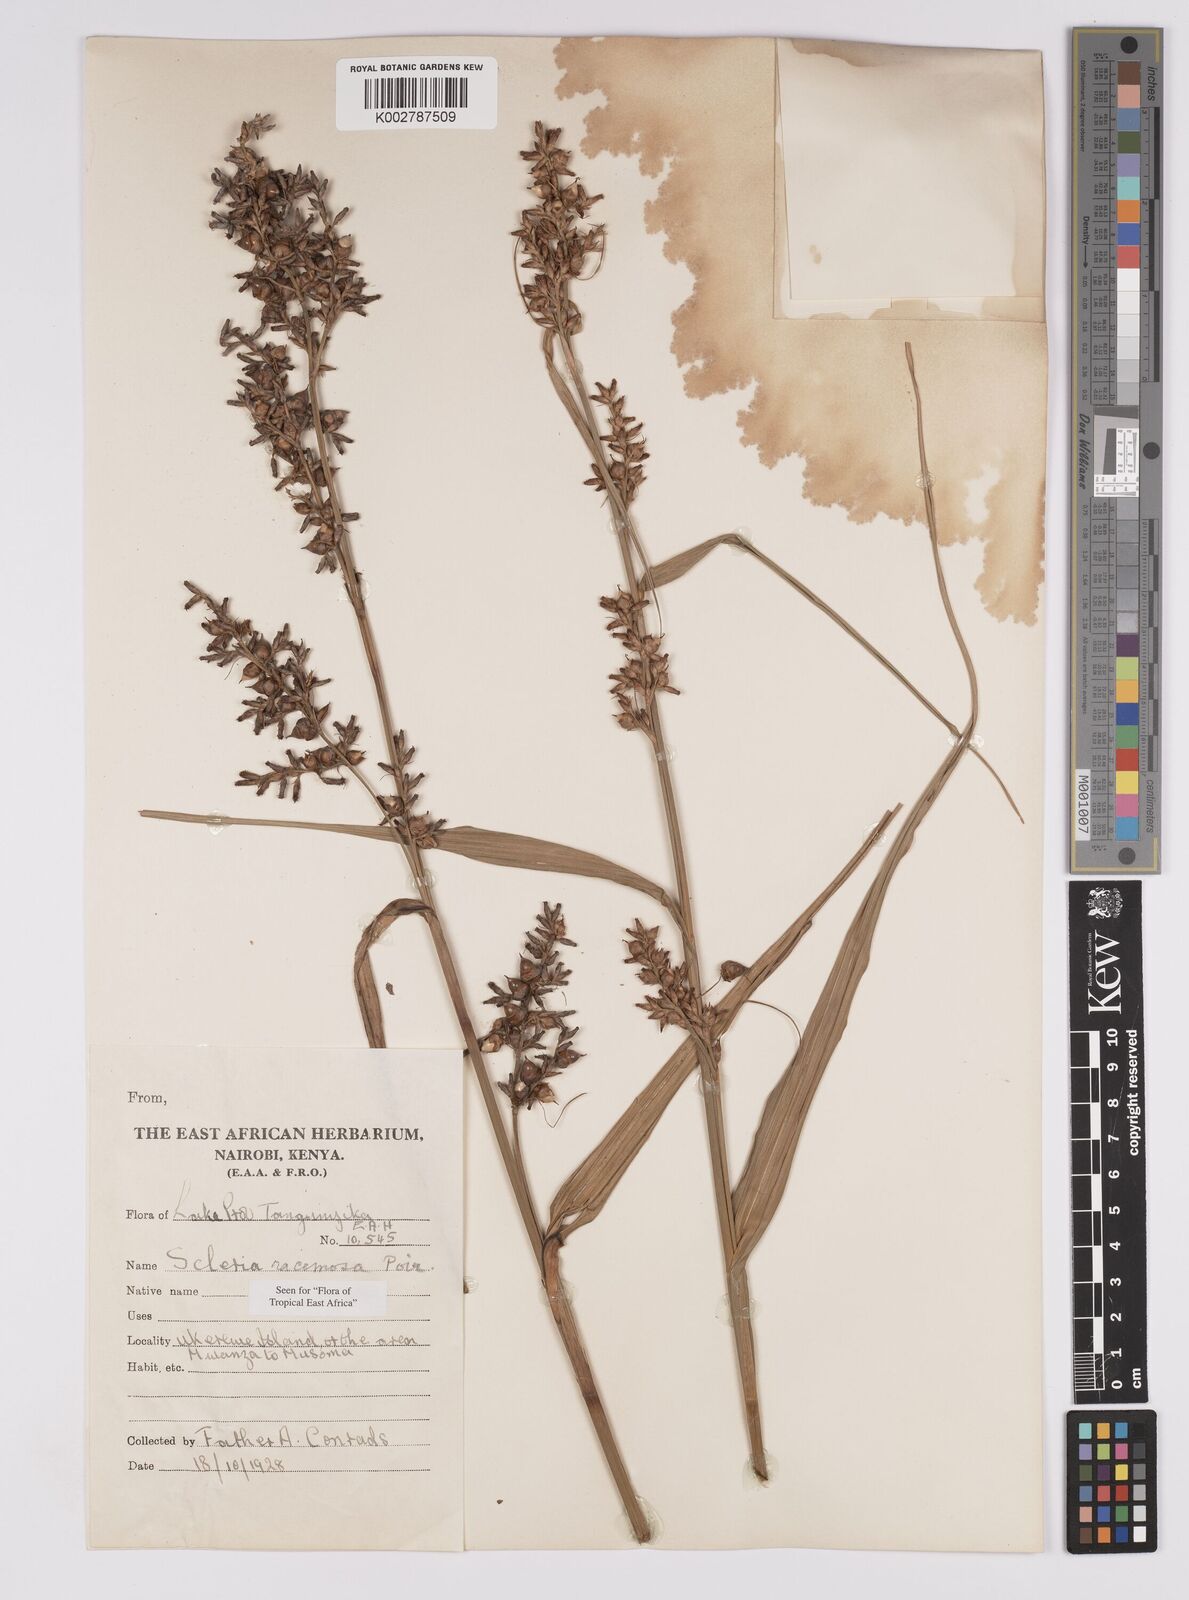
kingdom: Plantae
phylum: Tracheophyta
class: Liliopsida
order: Poales
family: Cyperaceae
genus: Scleria
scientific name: Scleria racemosa
